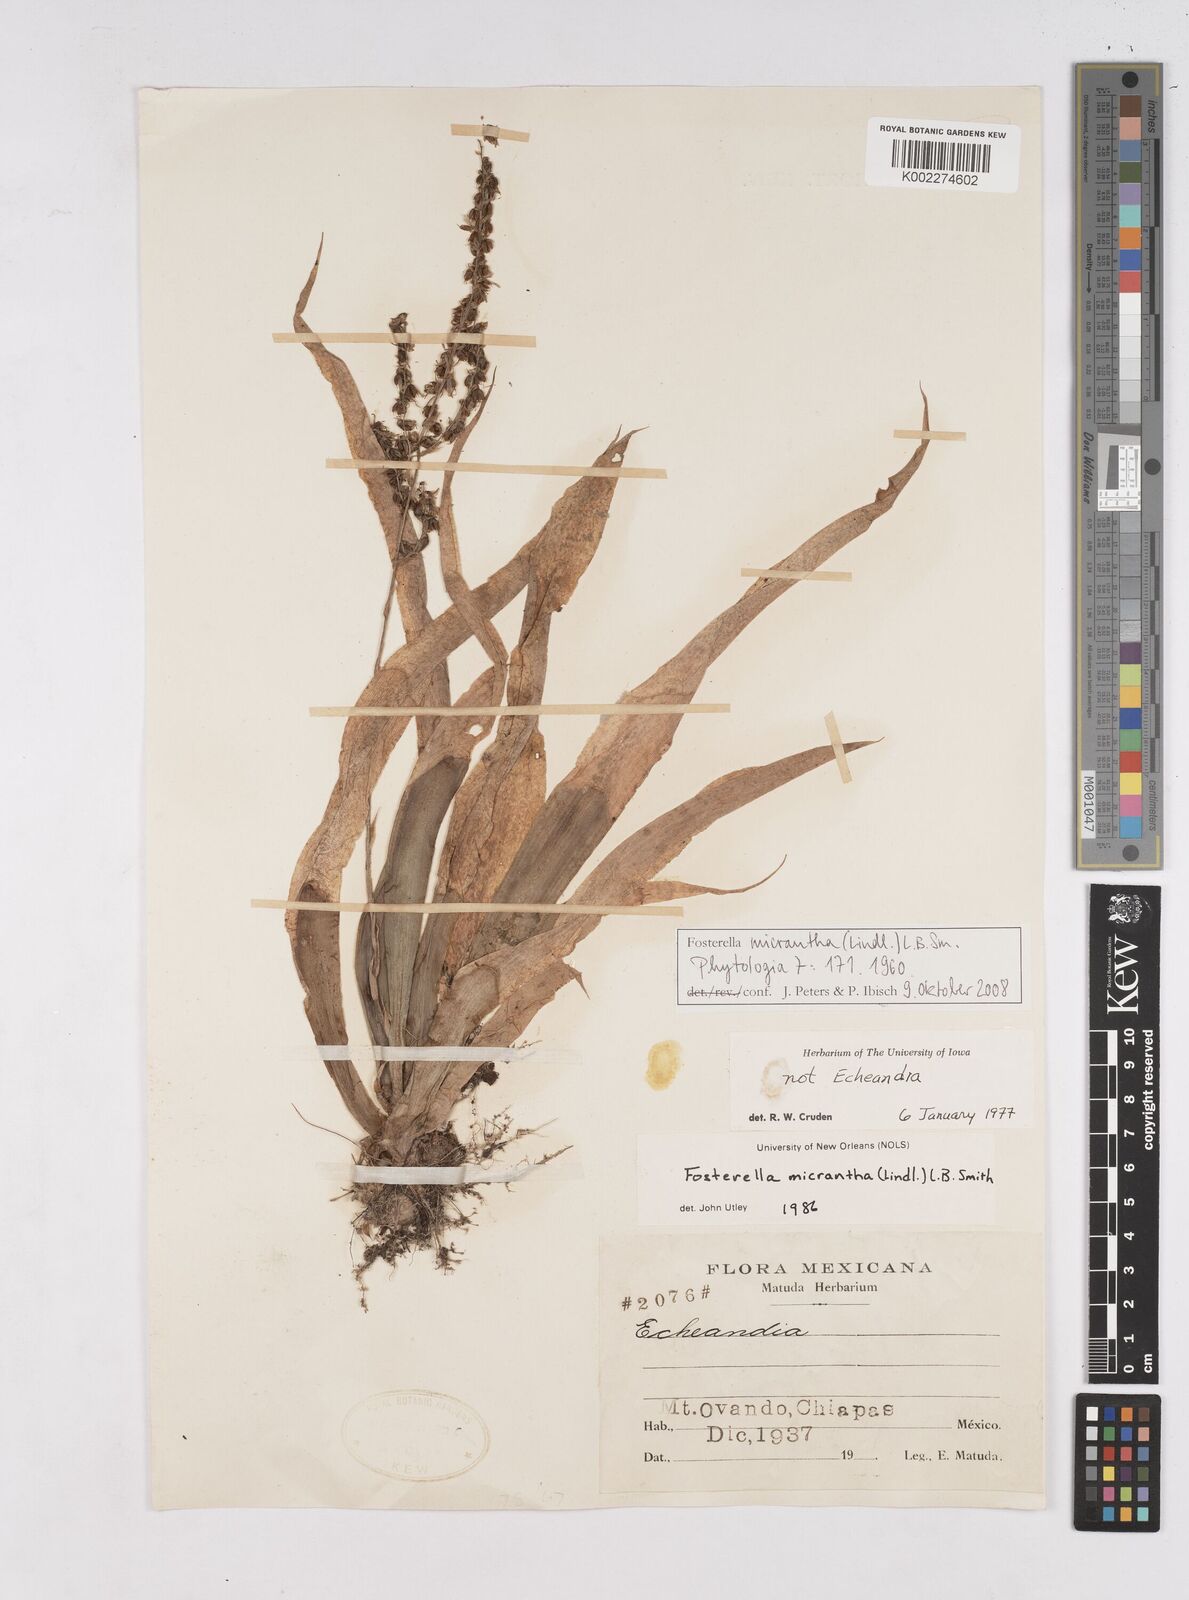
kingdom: Plantae
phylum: Tracheophyta
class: Liliopsida
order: Poales
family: Bromeliaceae
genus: Fosterella
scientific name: Fosterella micrantha
